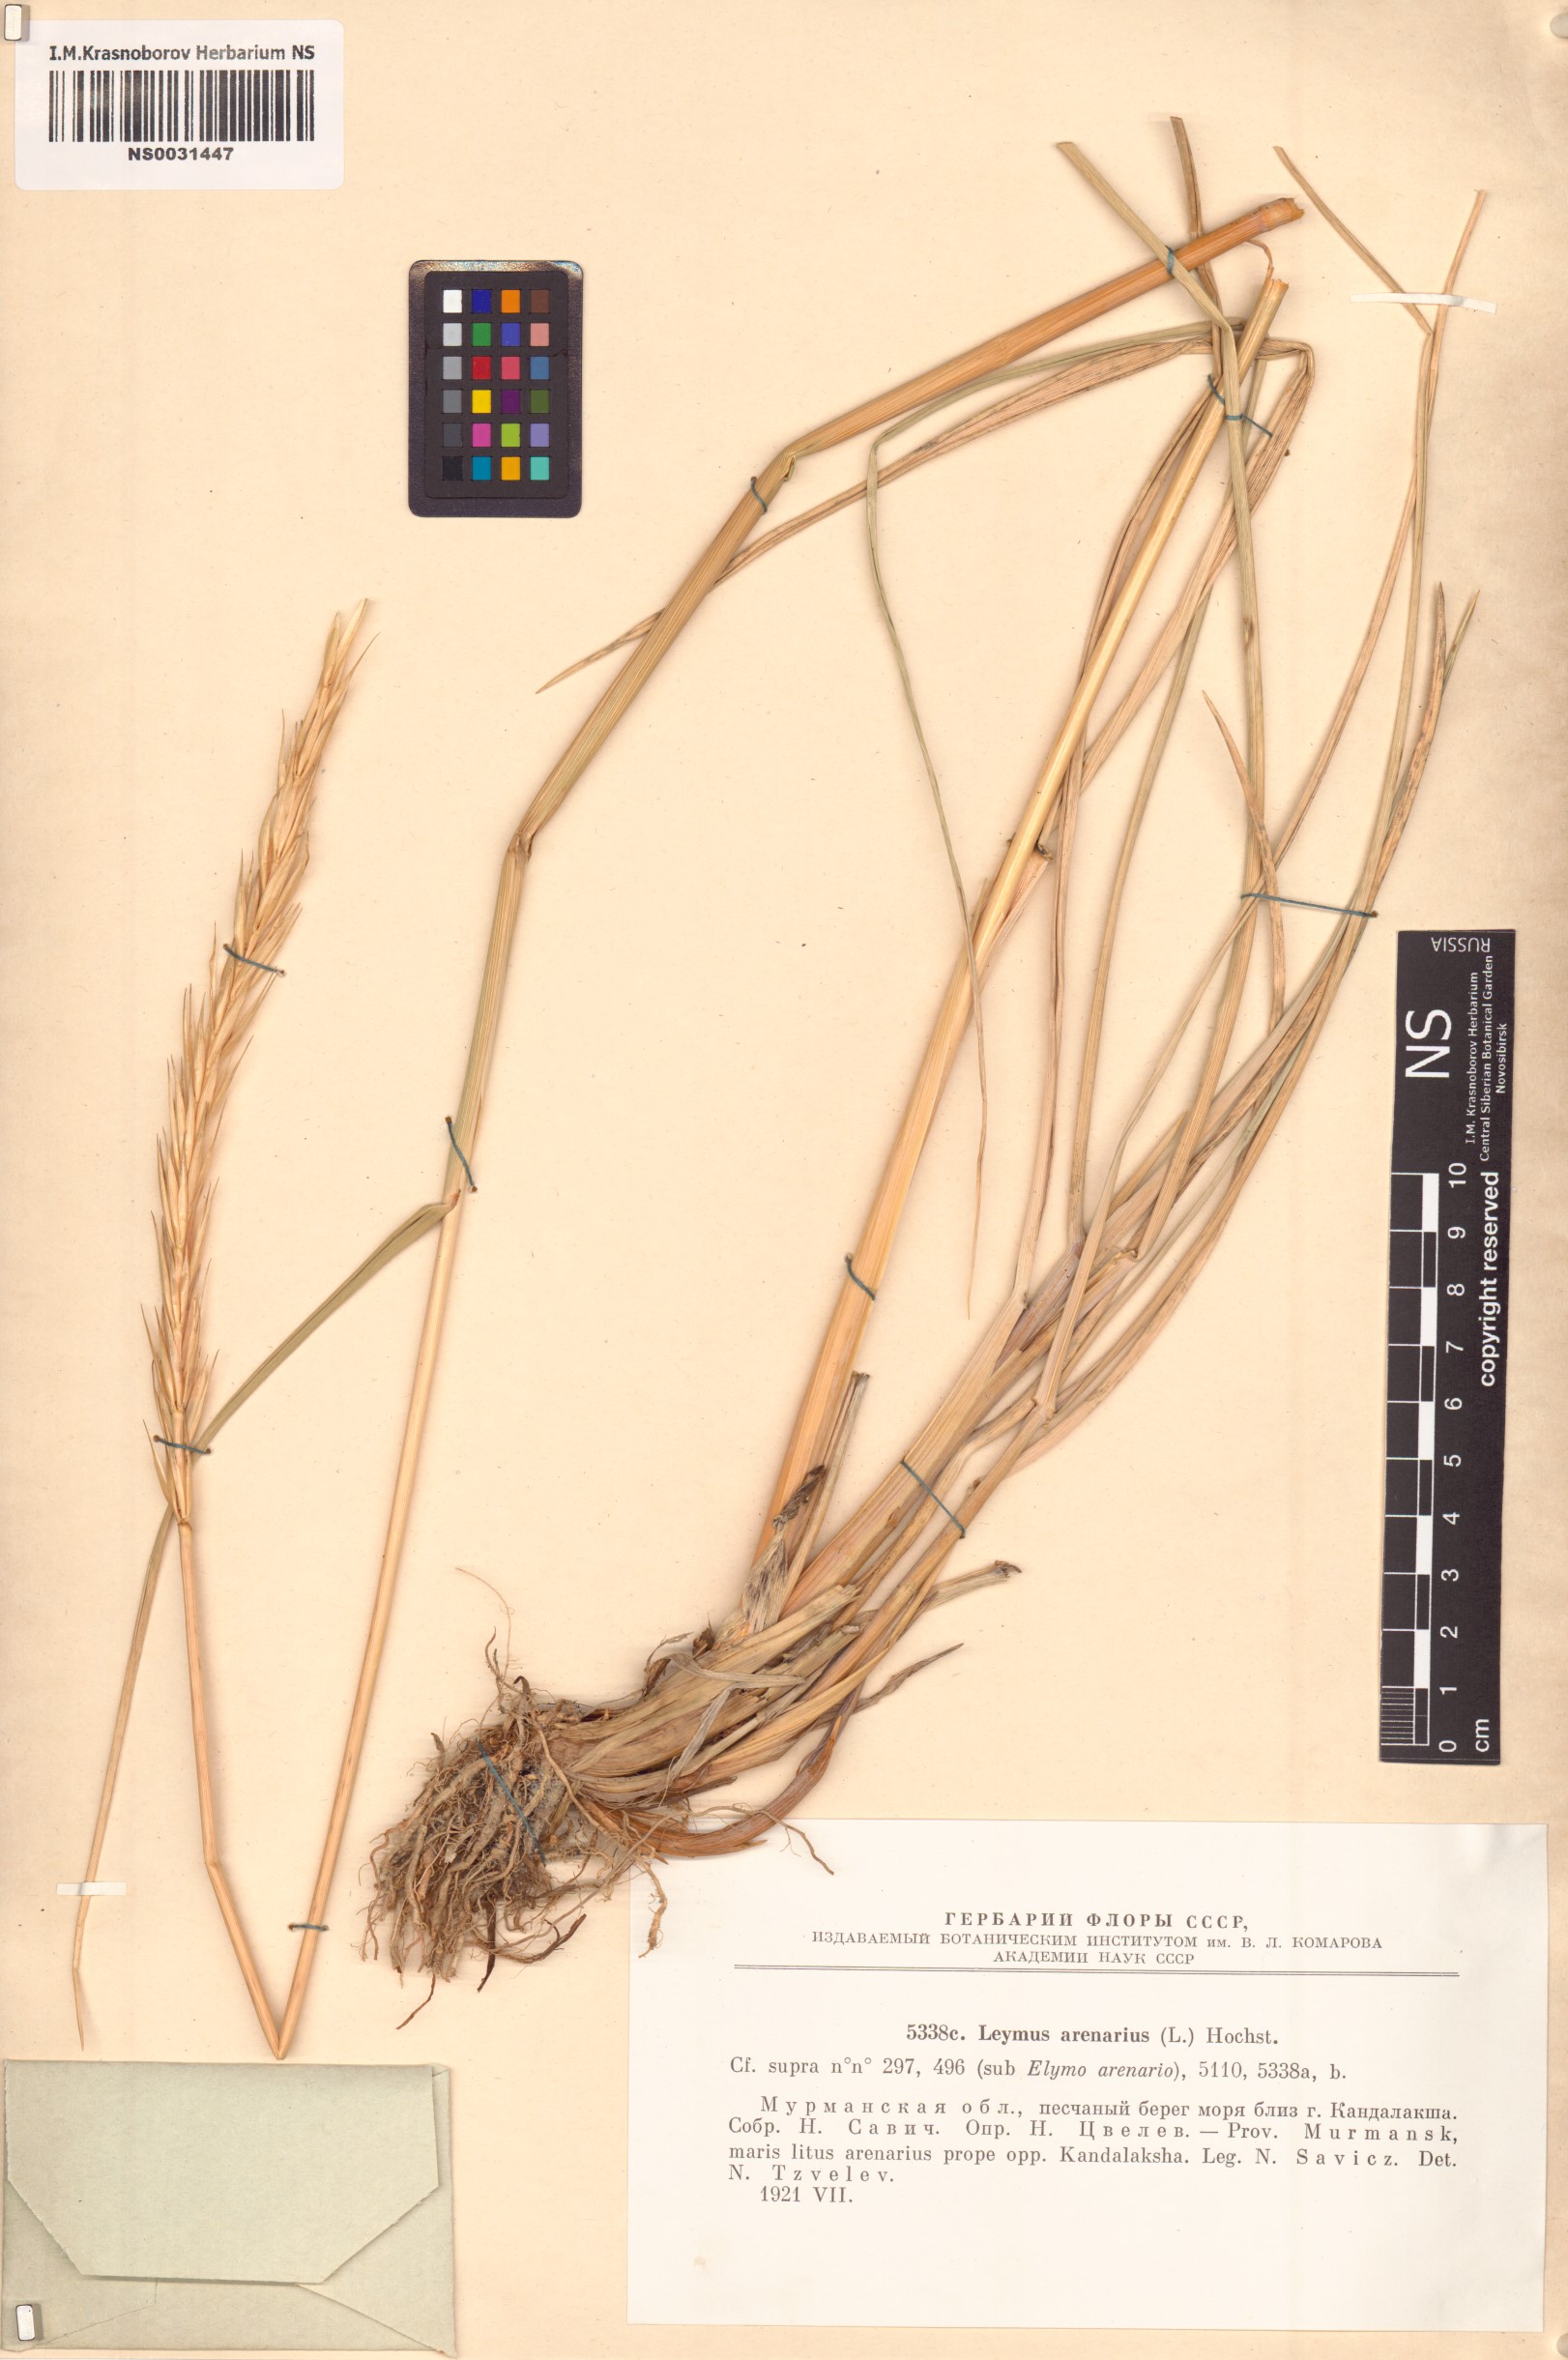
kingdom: Plantae
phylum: Tracheophyta
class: Liliopsida
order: Poales
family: Poaceae
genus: Leymus
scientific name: Leymus arenarius
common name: Lyme-grass
